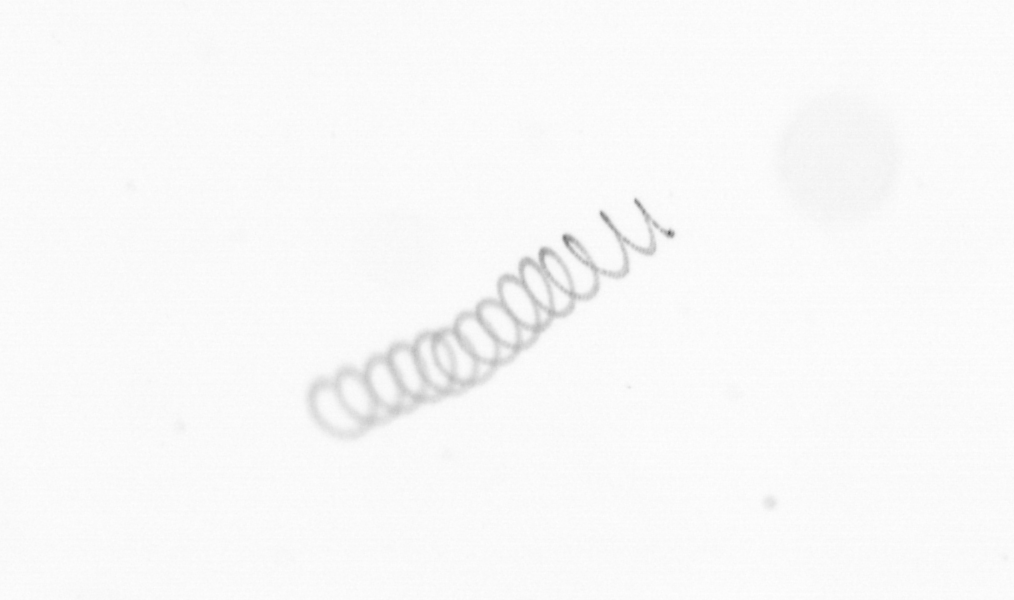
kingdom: Chromista
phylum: Ochrophyta
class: Bacillariophyceae
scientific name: Bacillariophyceae
